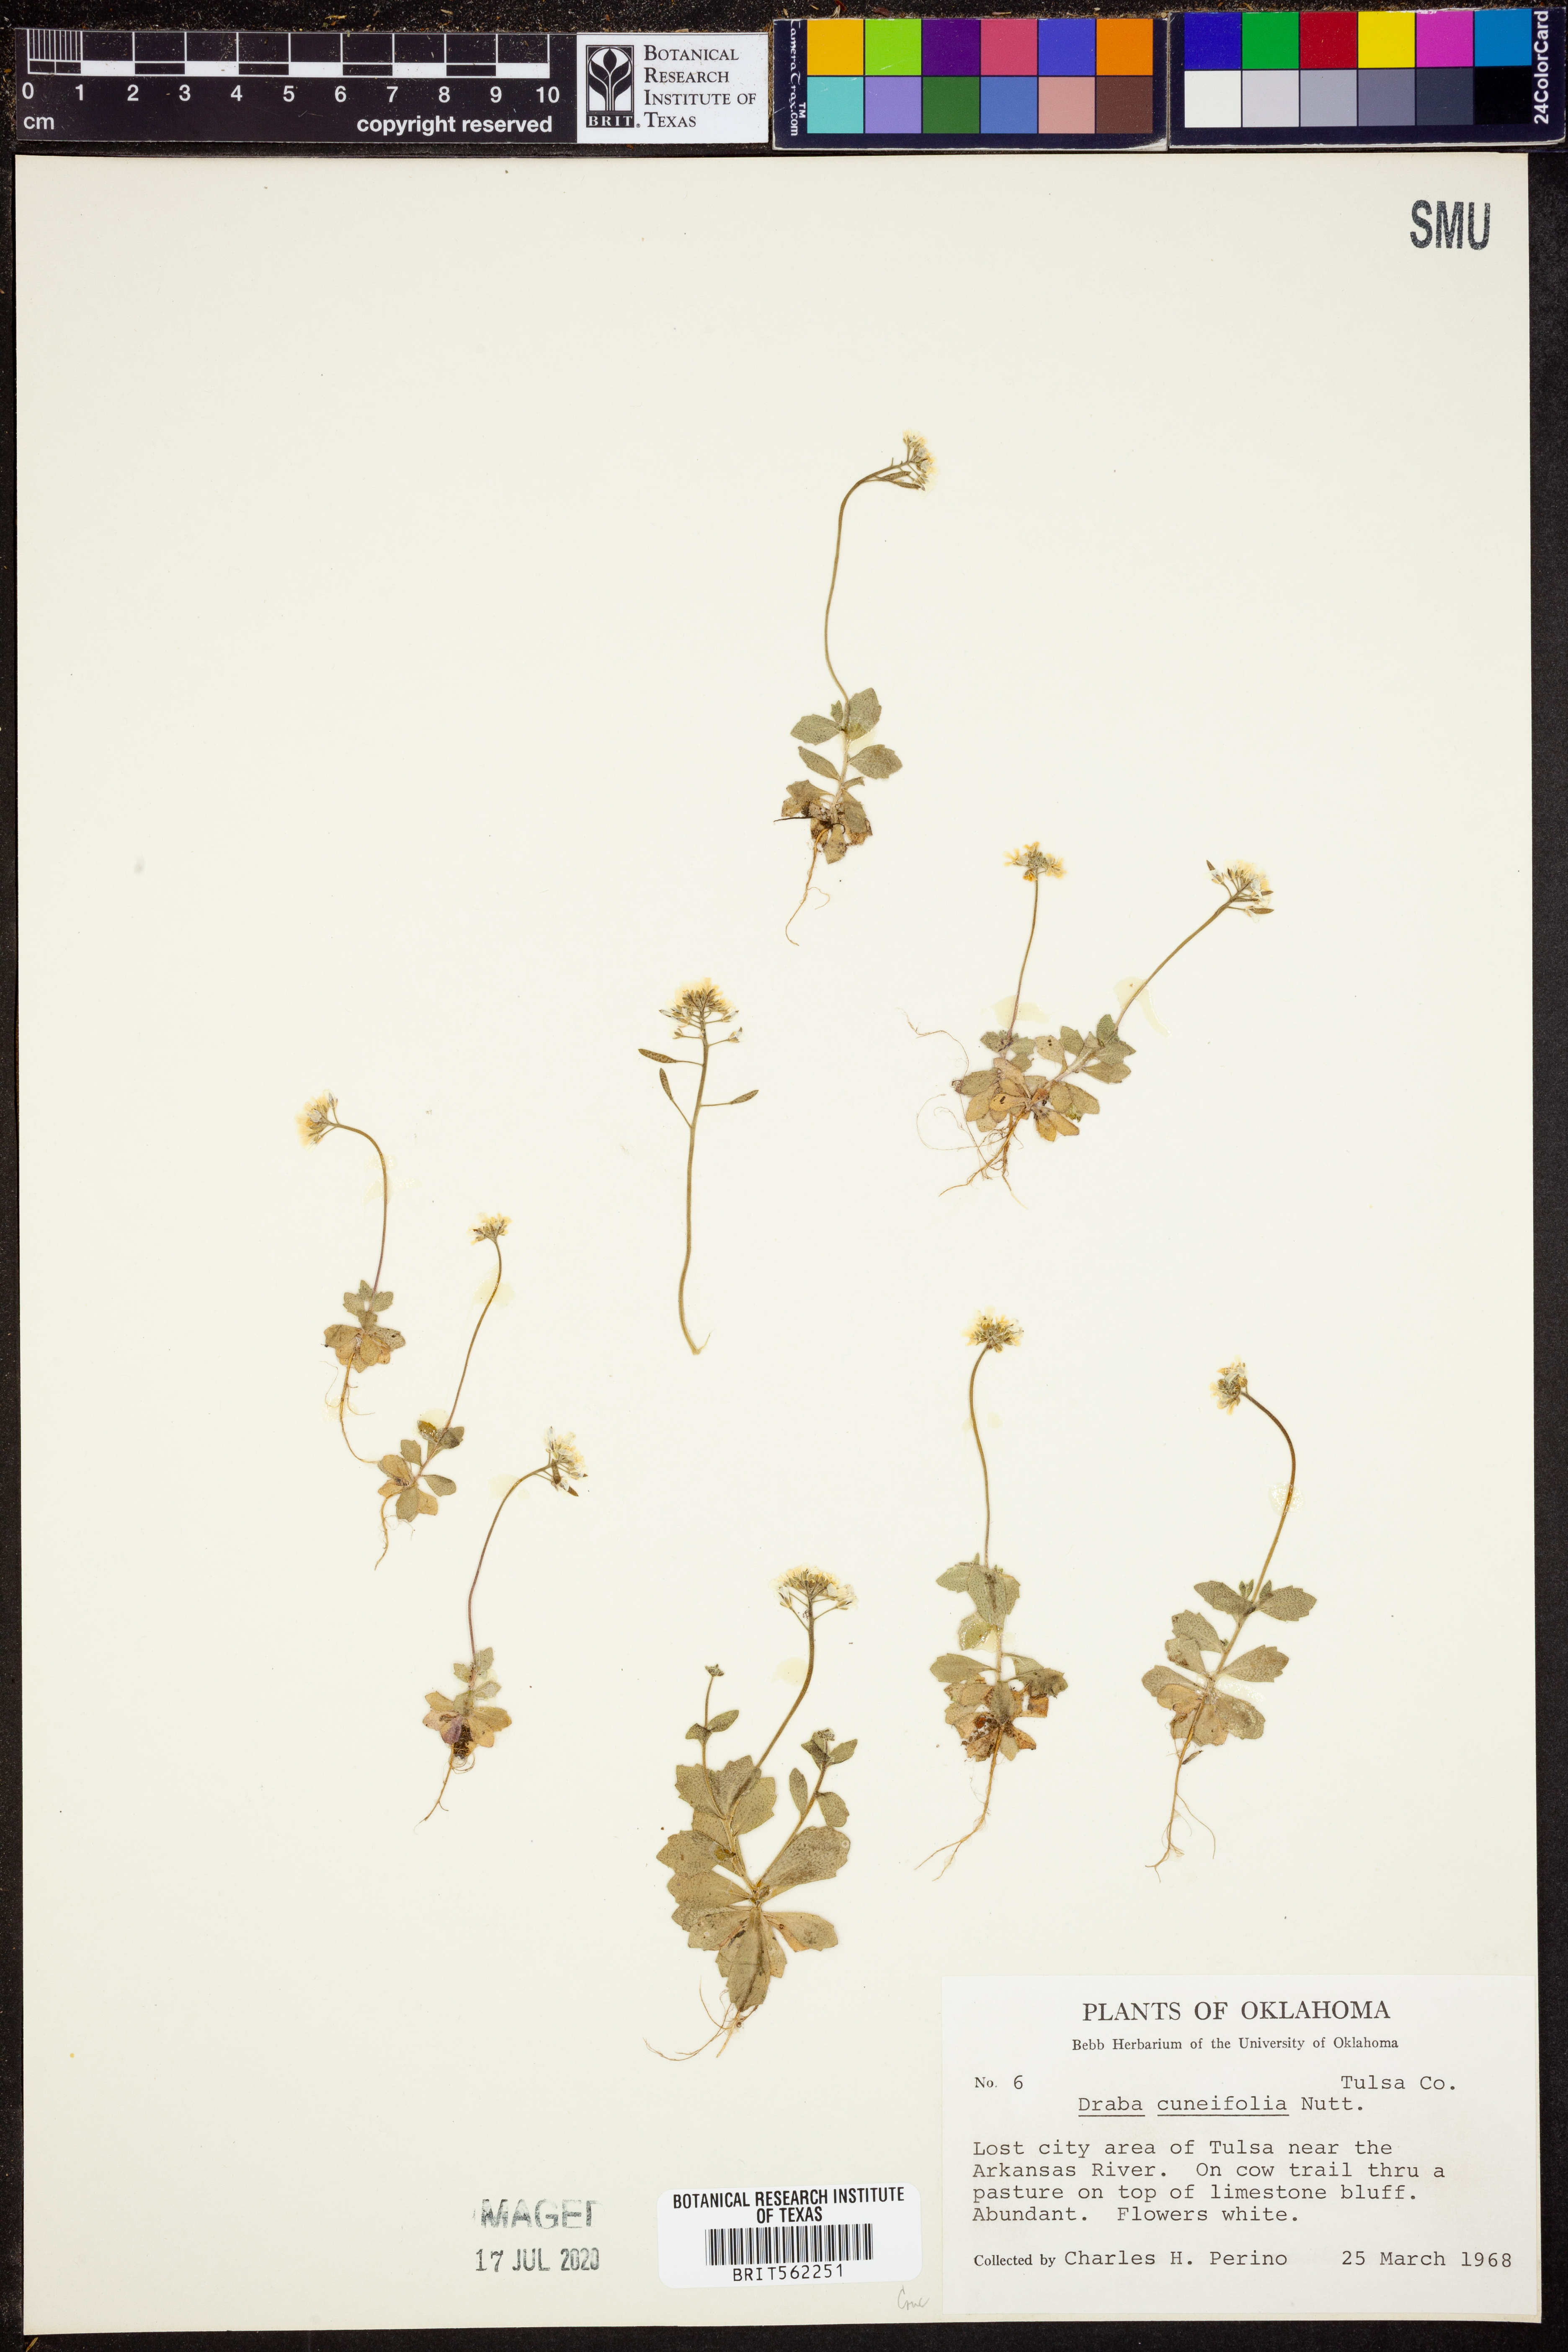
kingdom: Plantae
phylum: Tracheophyta
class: Magnoliopsida
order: Brassicales
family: Brassicaceae
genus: Tomostima
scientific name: Tomostima cuneifolia
